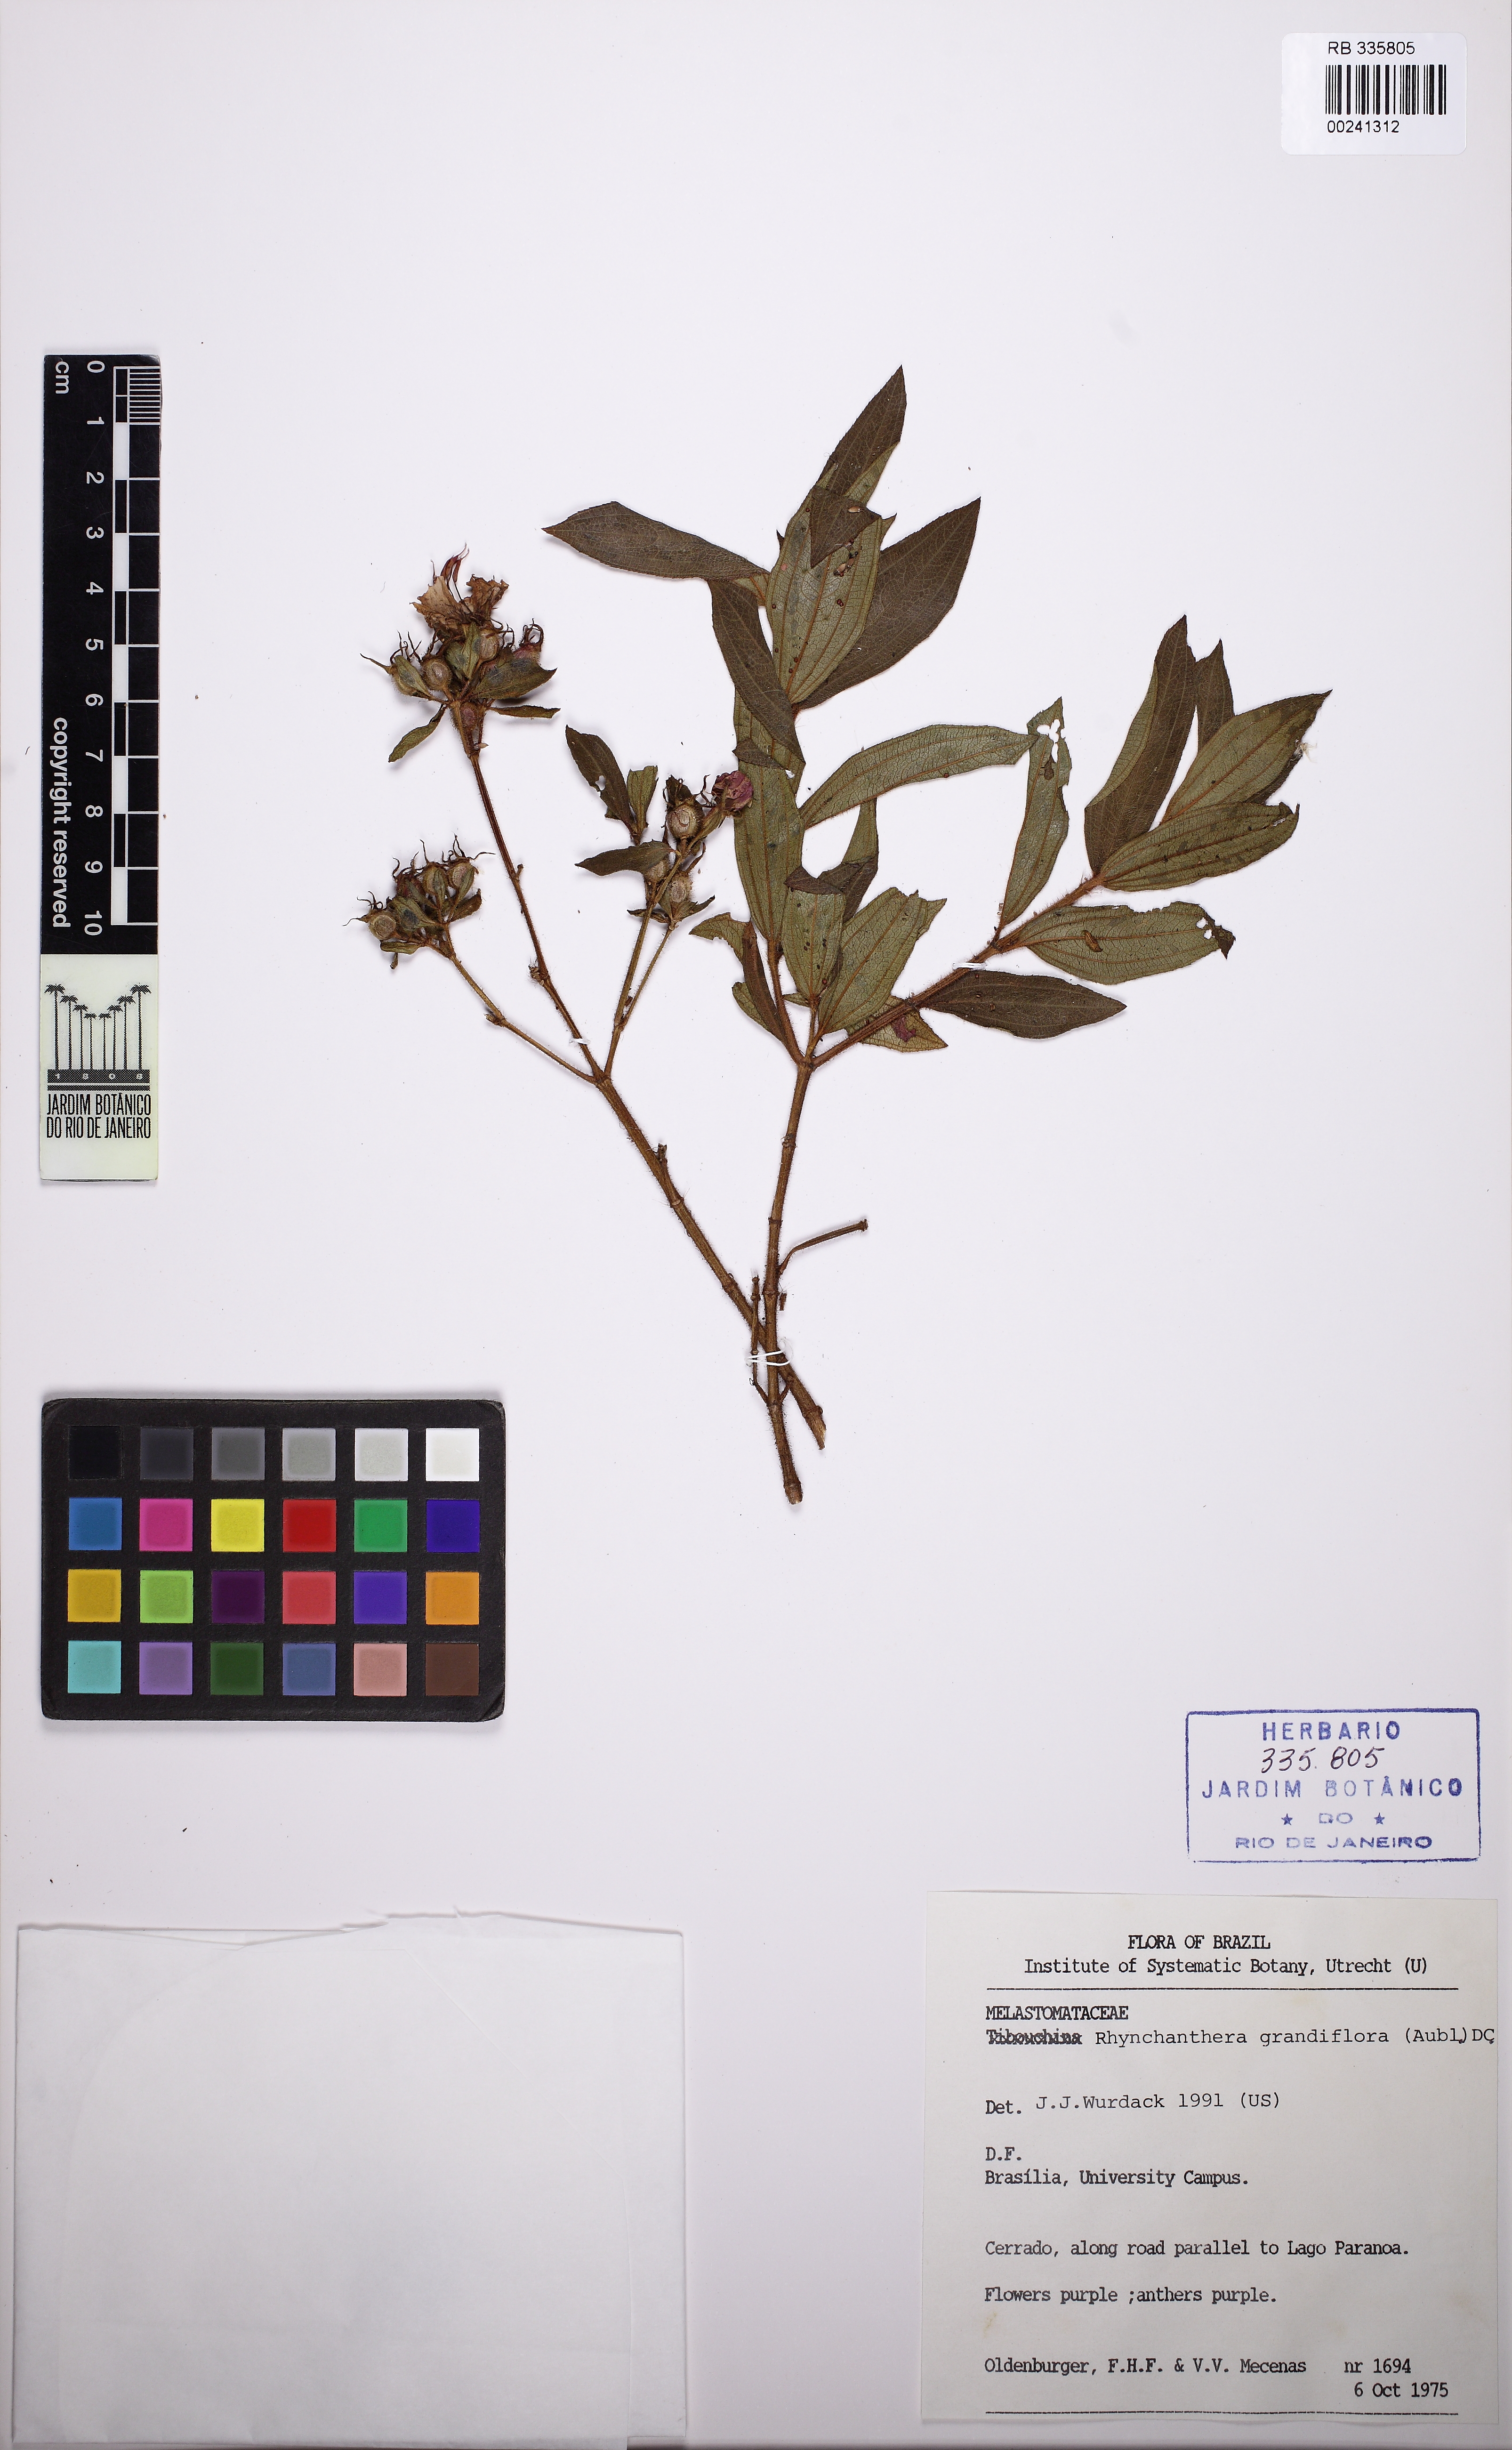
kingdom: Plantae
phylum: Tracheophyta
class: Magnoliopsida
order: Myrtales
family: Melastomataceae
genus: Rhynchanthera
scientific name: Rhynchanthera grandiflora
